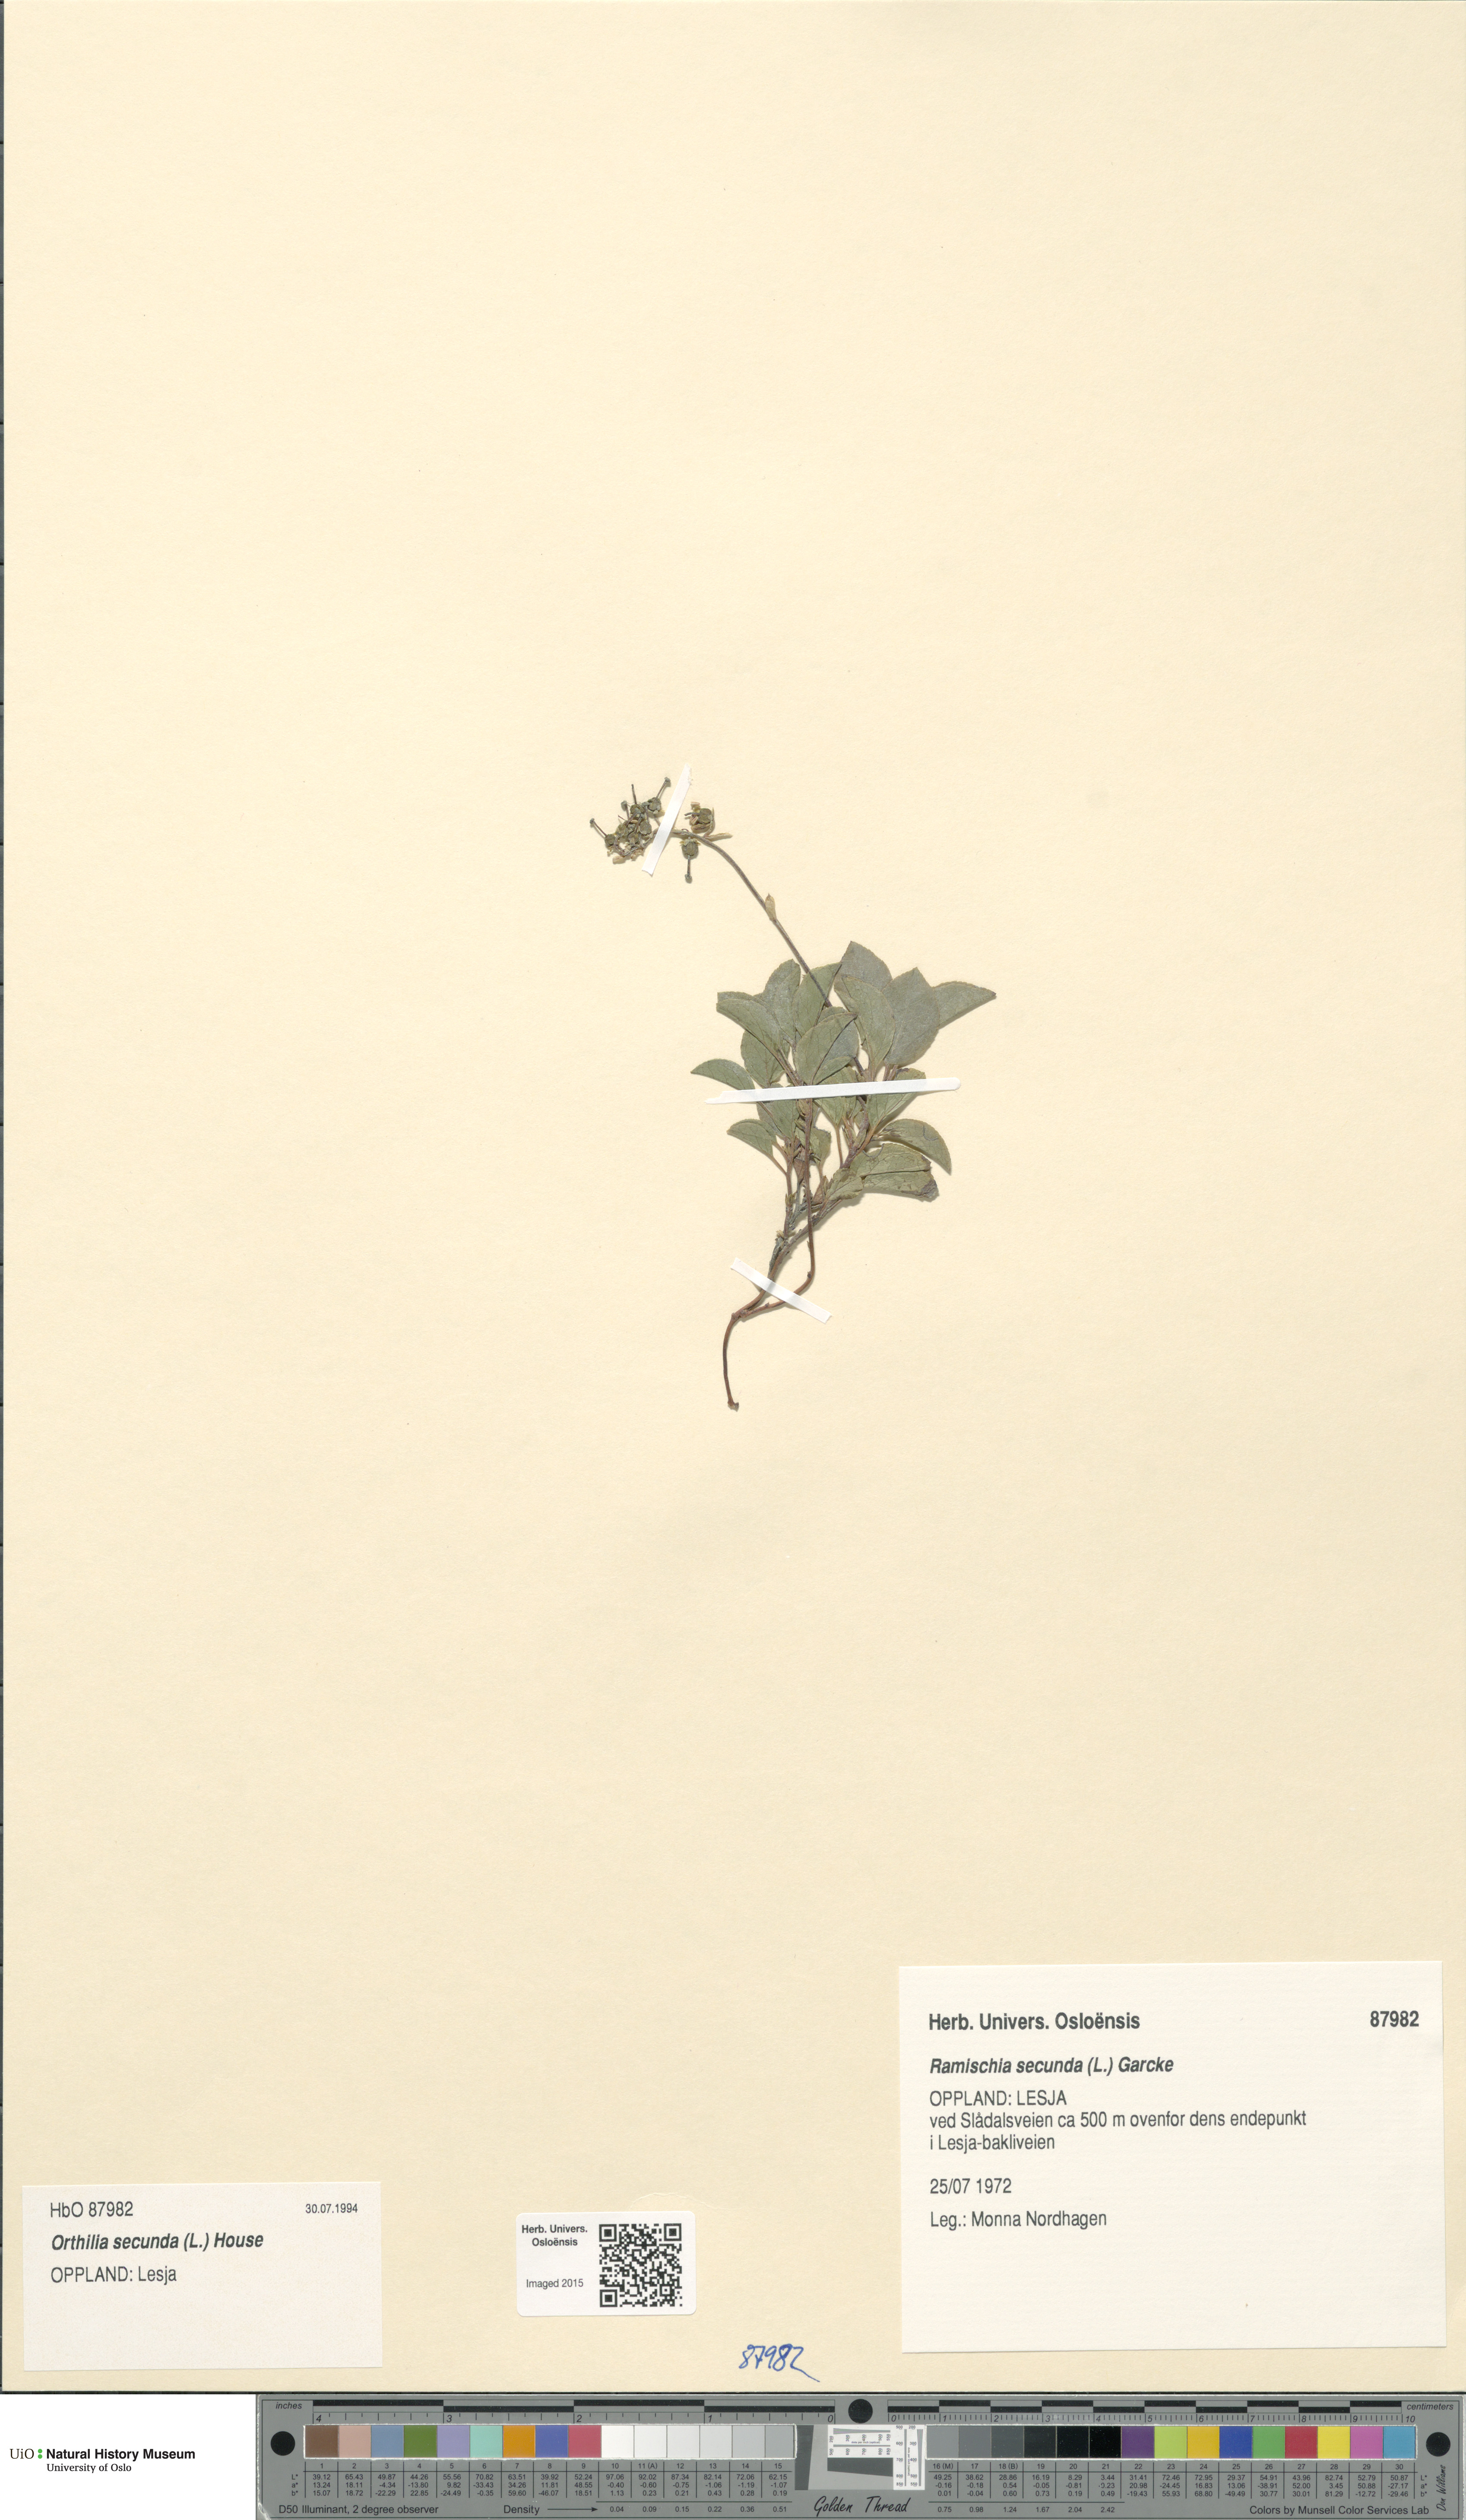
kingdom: Plantae
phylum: Tracheophyta
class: Magnoliopsida
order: Ericales
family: Ericaceae
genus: Orthilia
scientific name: Orthilia secunda
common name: One-sided orthilia
